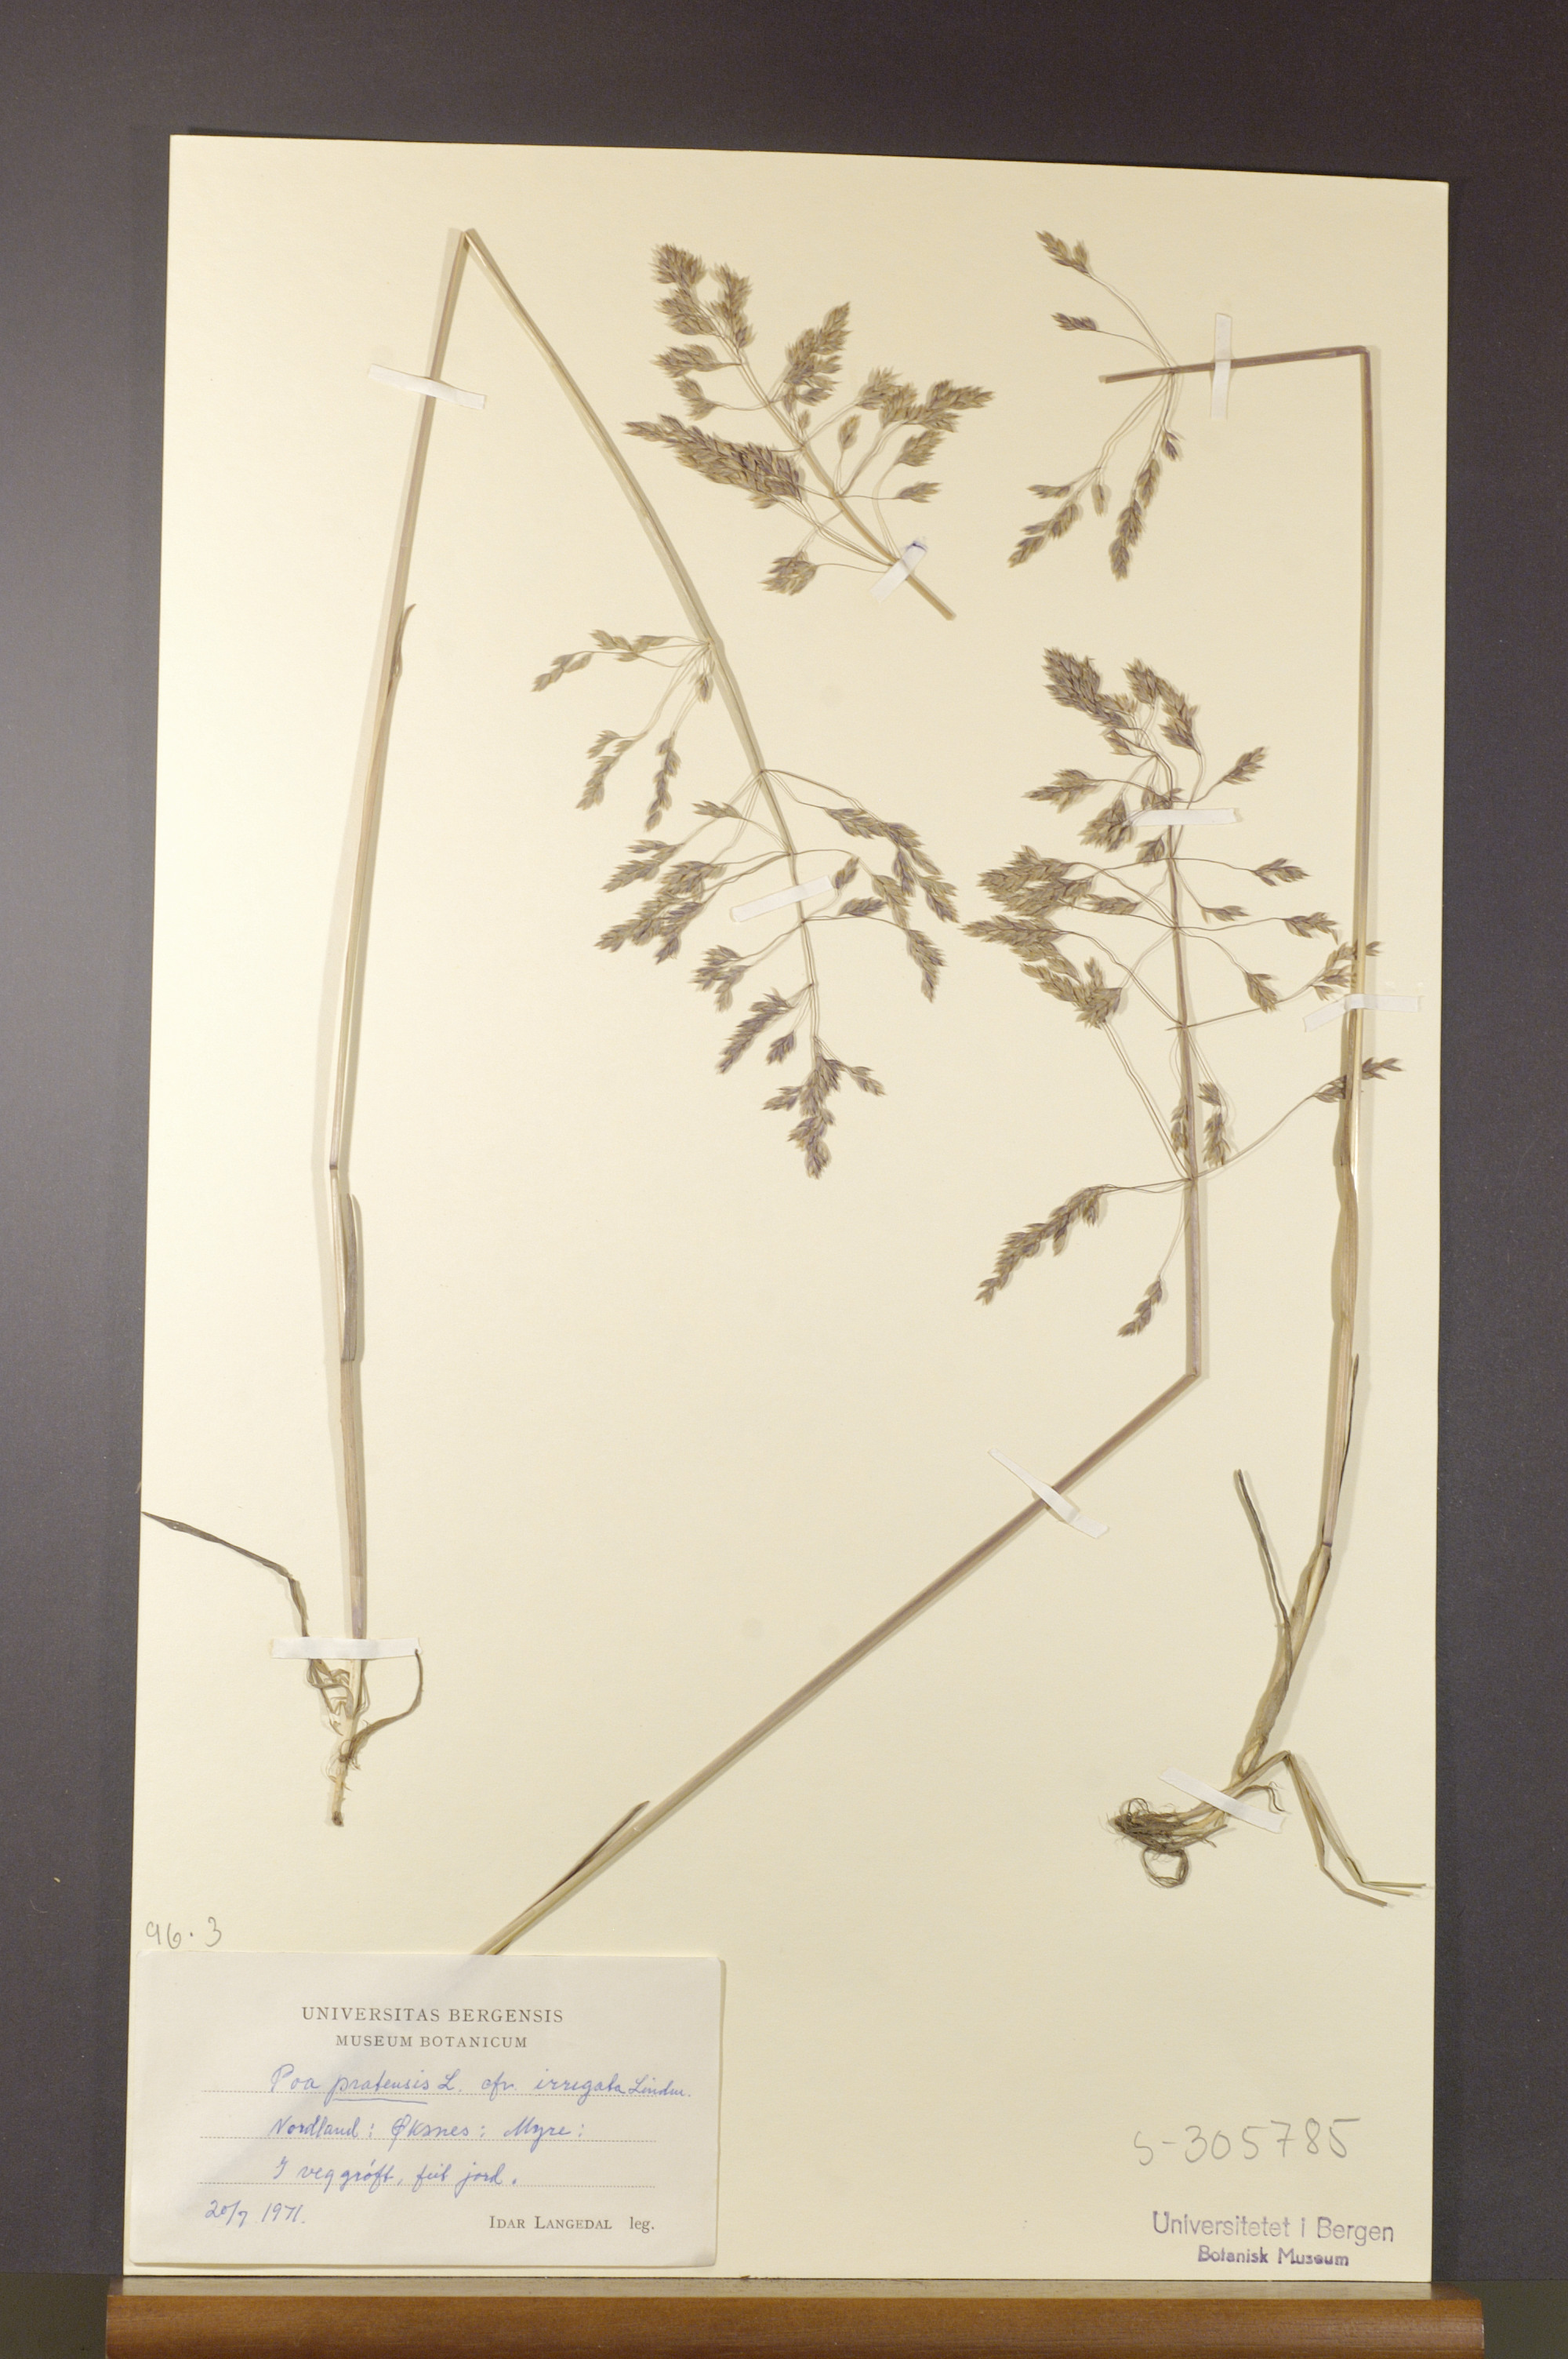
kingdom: Plantae
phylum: Tracheophyta
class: Liliopsida
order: Poales
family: Poaceae
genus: Poa
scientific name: Poa humilis
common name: Spreading meadow-grass
